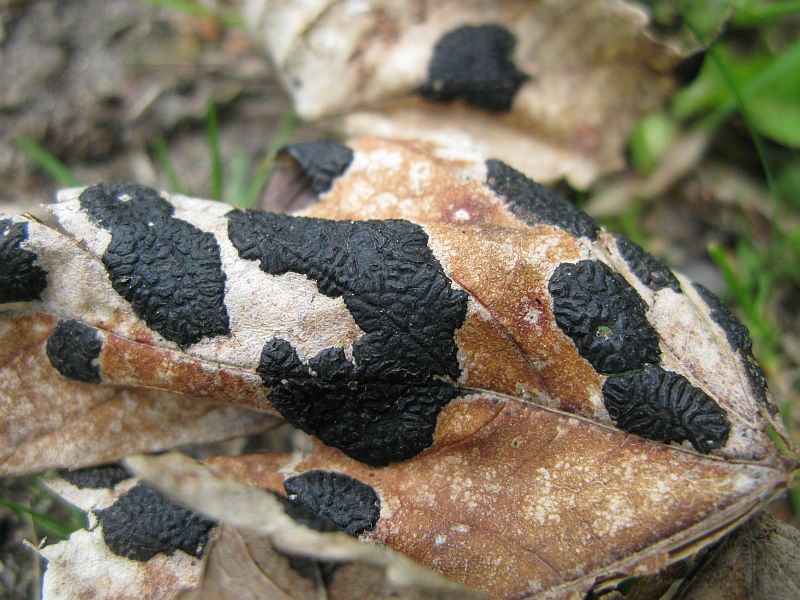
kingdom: Fungi
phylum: Ascomycota
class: Leotiomycetes
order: Rhytismatales
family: Rhytismataceae
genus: Rhytisma
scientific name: Rhytisma acerinum
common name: ahorn-rynkeplet
